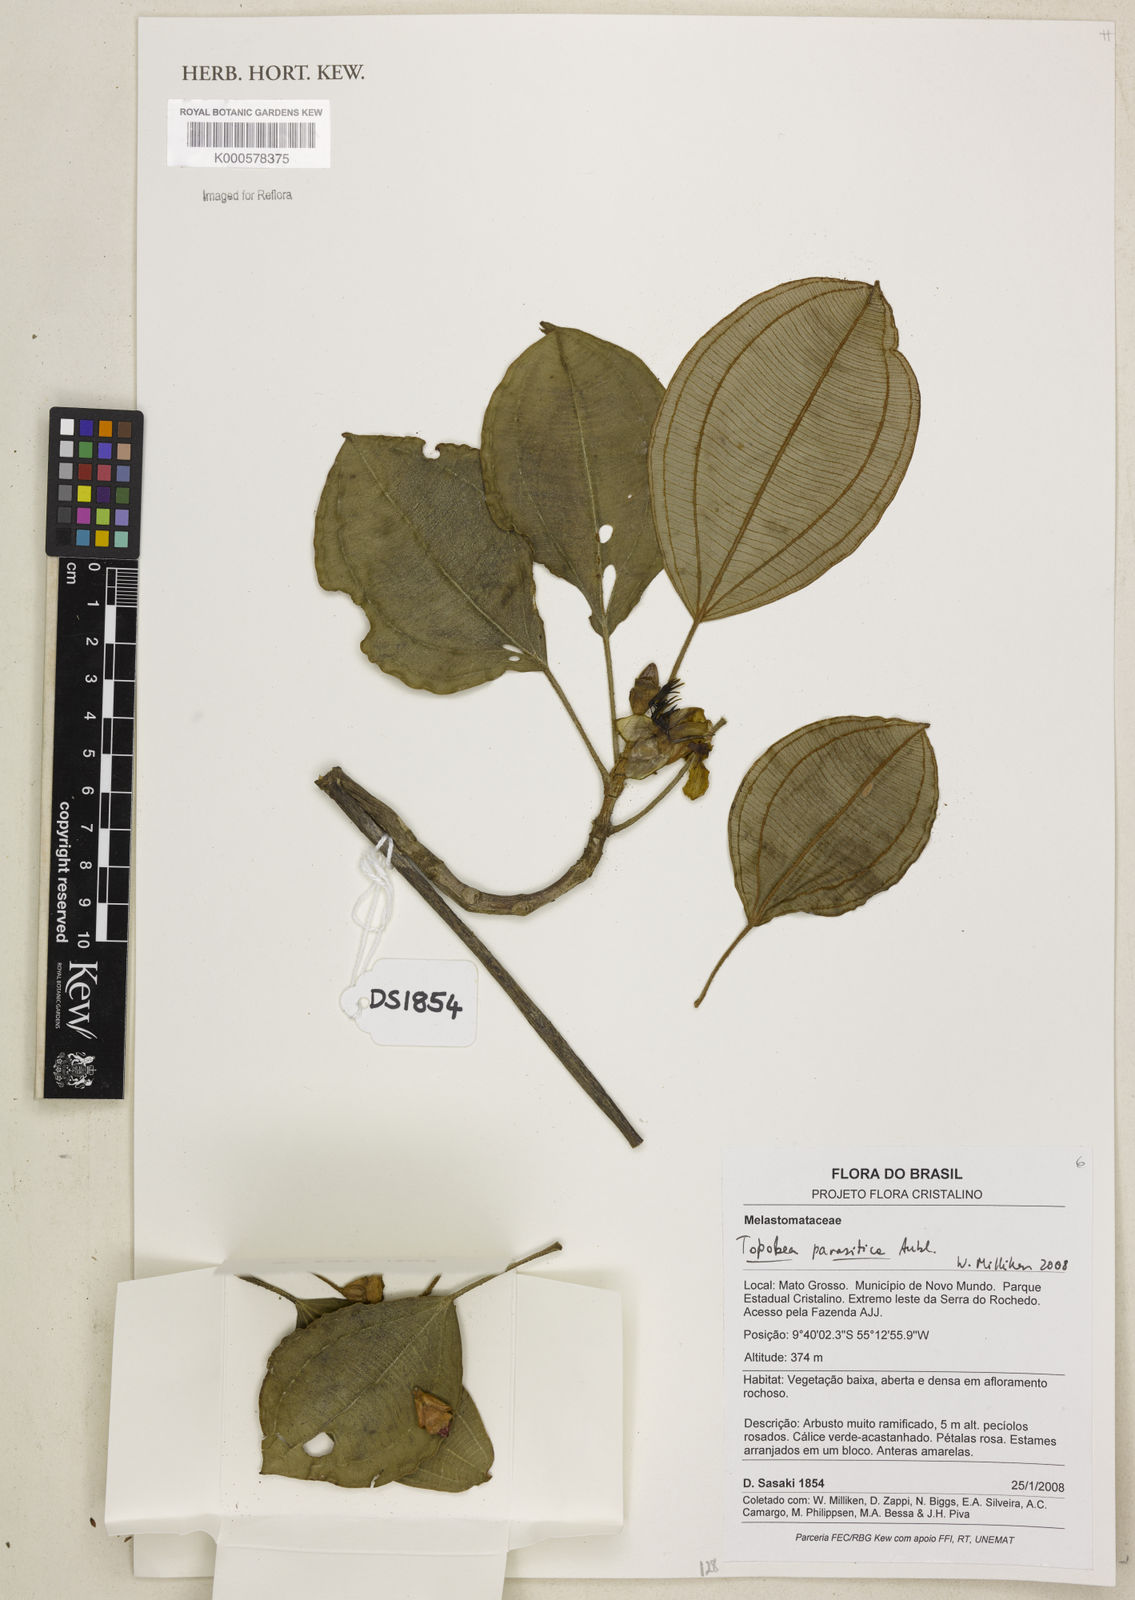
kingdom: Plantae
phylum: Tracheophyta
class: Magnoliopsida
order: Myrtales
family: Melastomataceae
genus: Blakea
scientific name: Blakea parasitica
